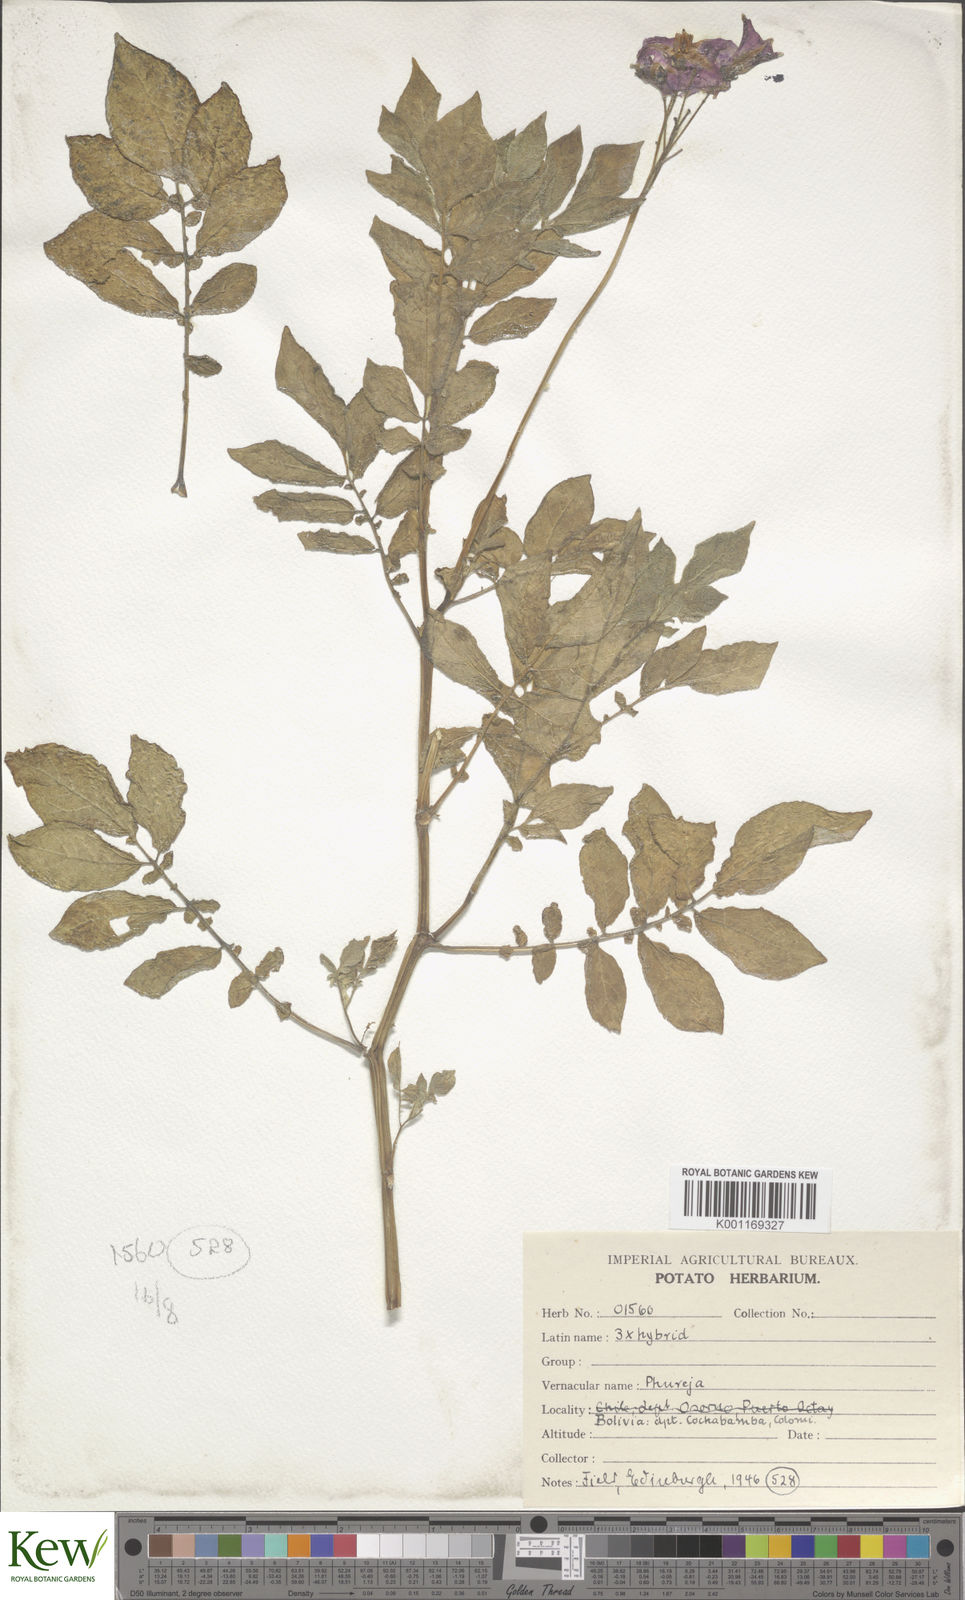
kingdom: Plantae
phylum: Tracheophyta
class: Magnoliopsida
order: Solanales
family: Solanaceae
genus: Solanum
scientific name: Solanum chaucha
